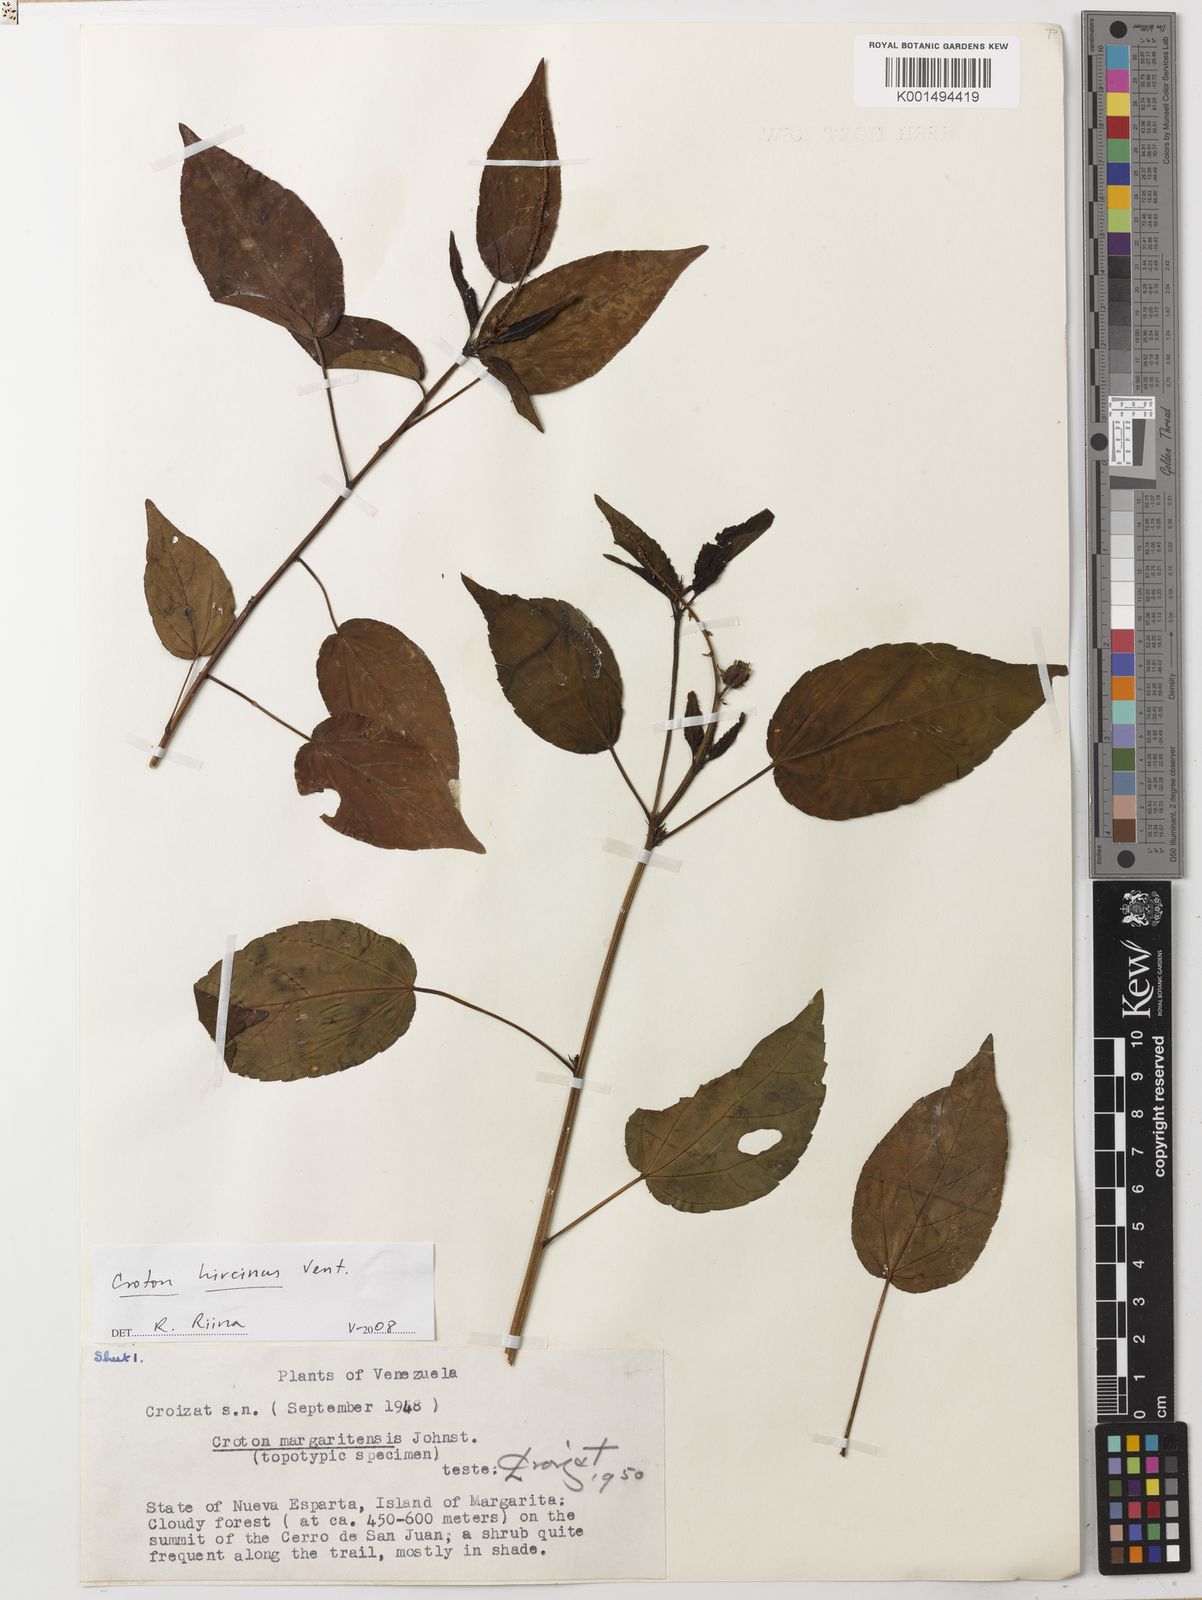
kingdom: Plantae
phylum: Tracheophyta
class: Magnoliopsida
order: Malpighiales
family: Euphorbiaceae
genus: Croton
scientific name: Croton hircinus
